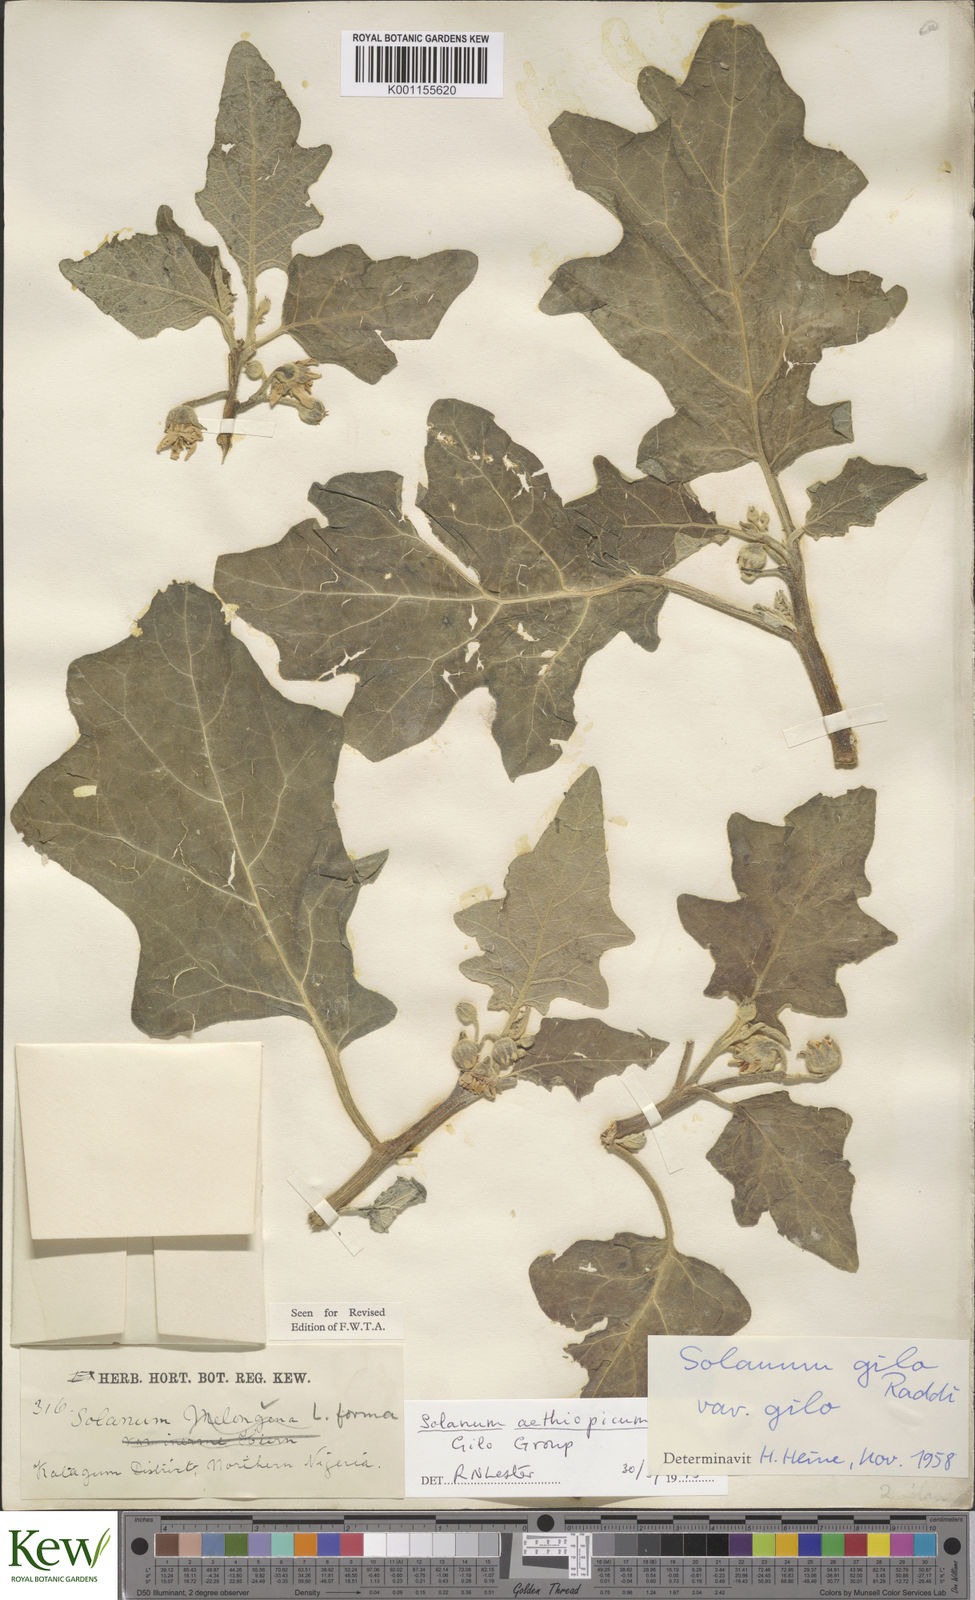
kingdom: Plantae
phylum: Tracheophyta
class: Magnoliopsida
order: Solanales
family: Solanaceae
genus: Solanum
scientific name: Solanum aethiopicum
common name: Gilo
